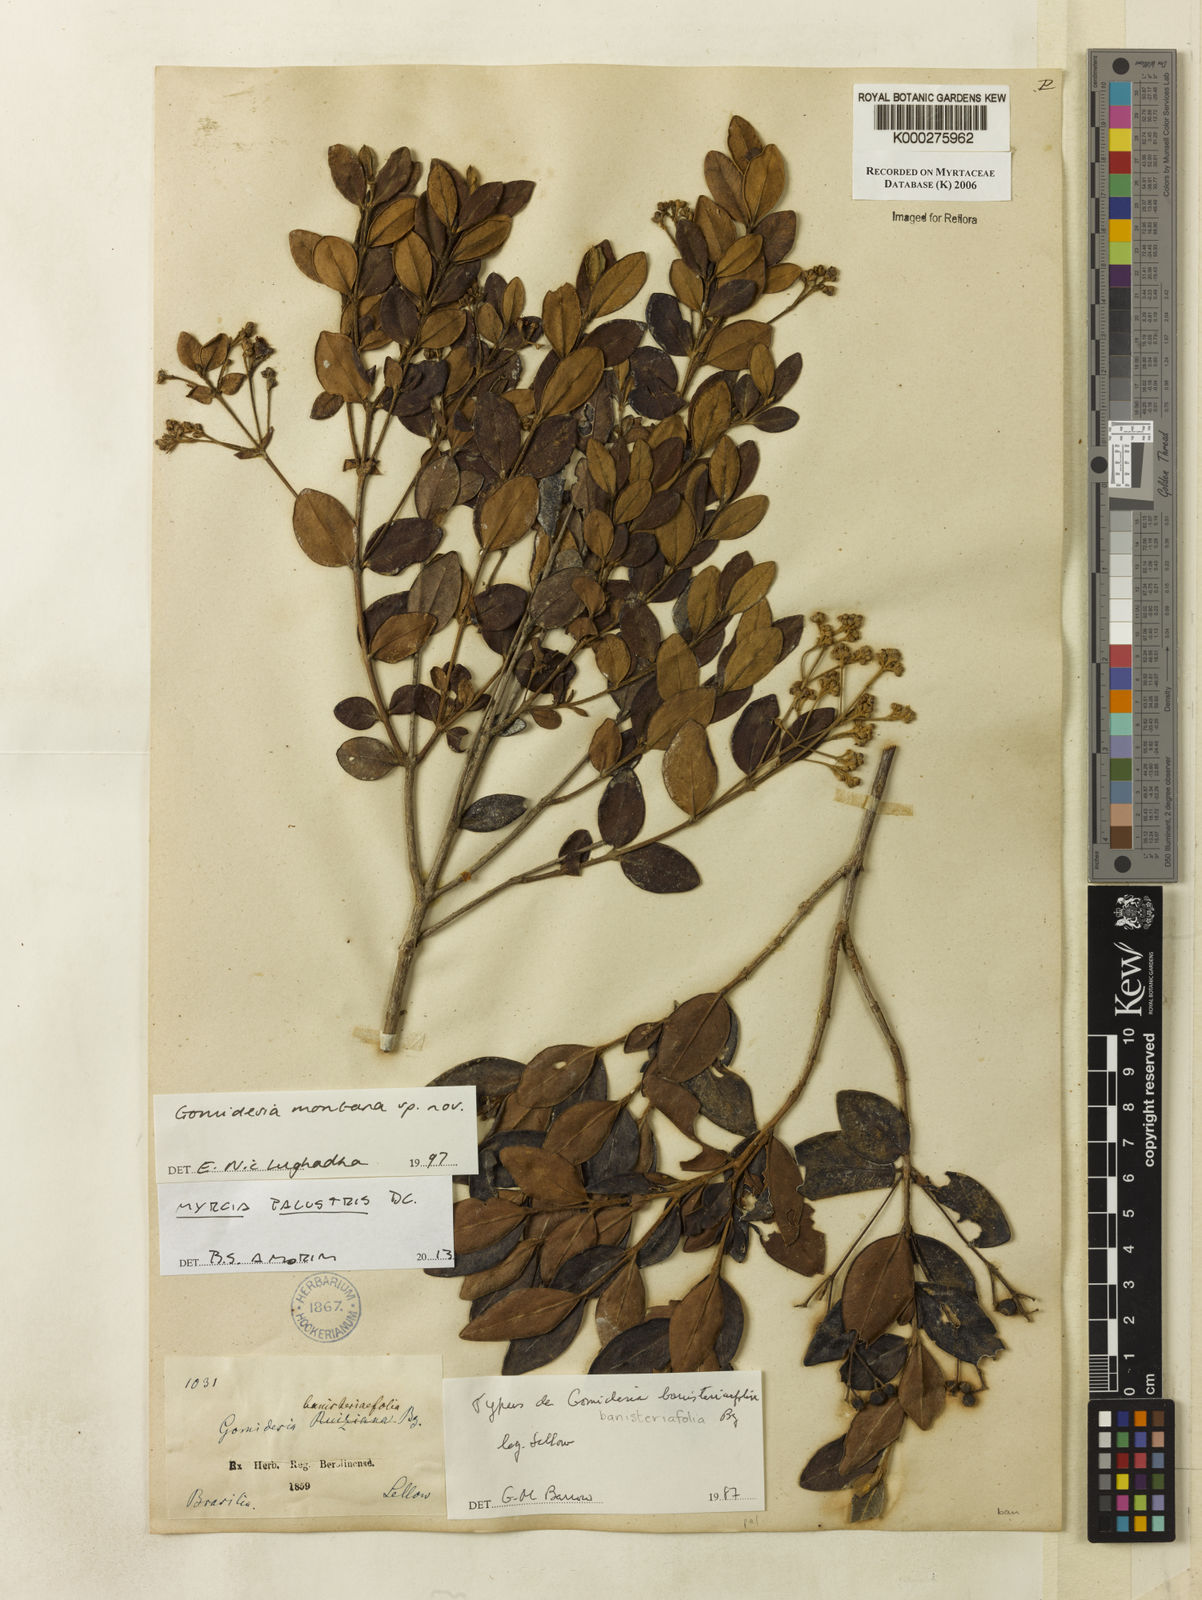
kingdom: Plantae
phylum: Tracheophyta
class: Magnoliopsida
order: Myrtales
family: Myrtaceae
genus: Myrcia
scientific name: Myrcia palustris
